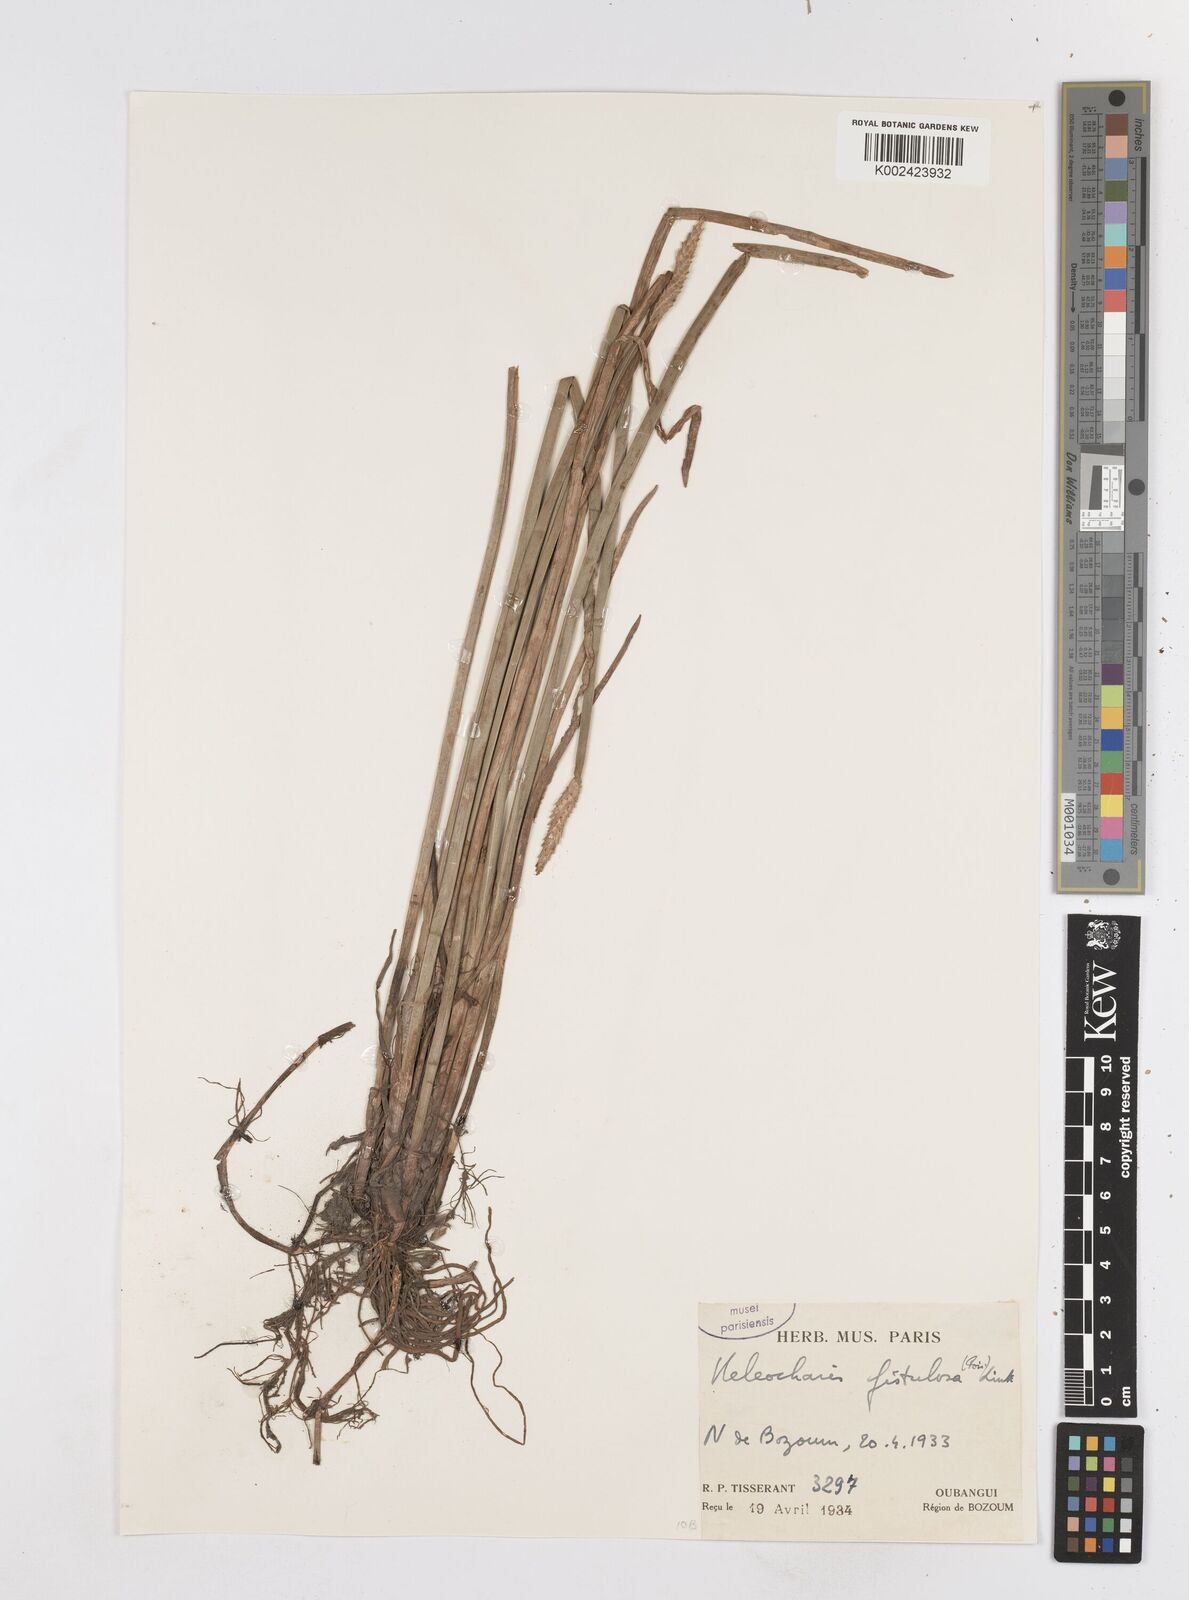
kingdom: Plantae
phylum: Tracheophyta
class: Liliopsida
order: Poales
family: Cyperaceae
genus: Eleocharis
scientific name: Eleocharis acutangula
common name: Acute spikerush
